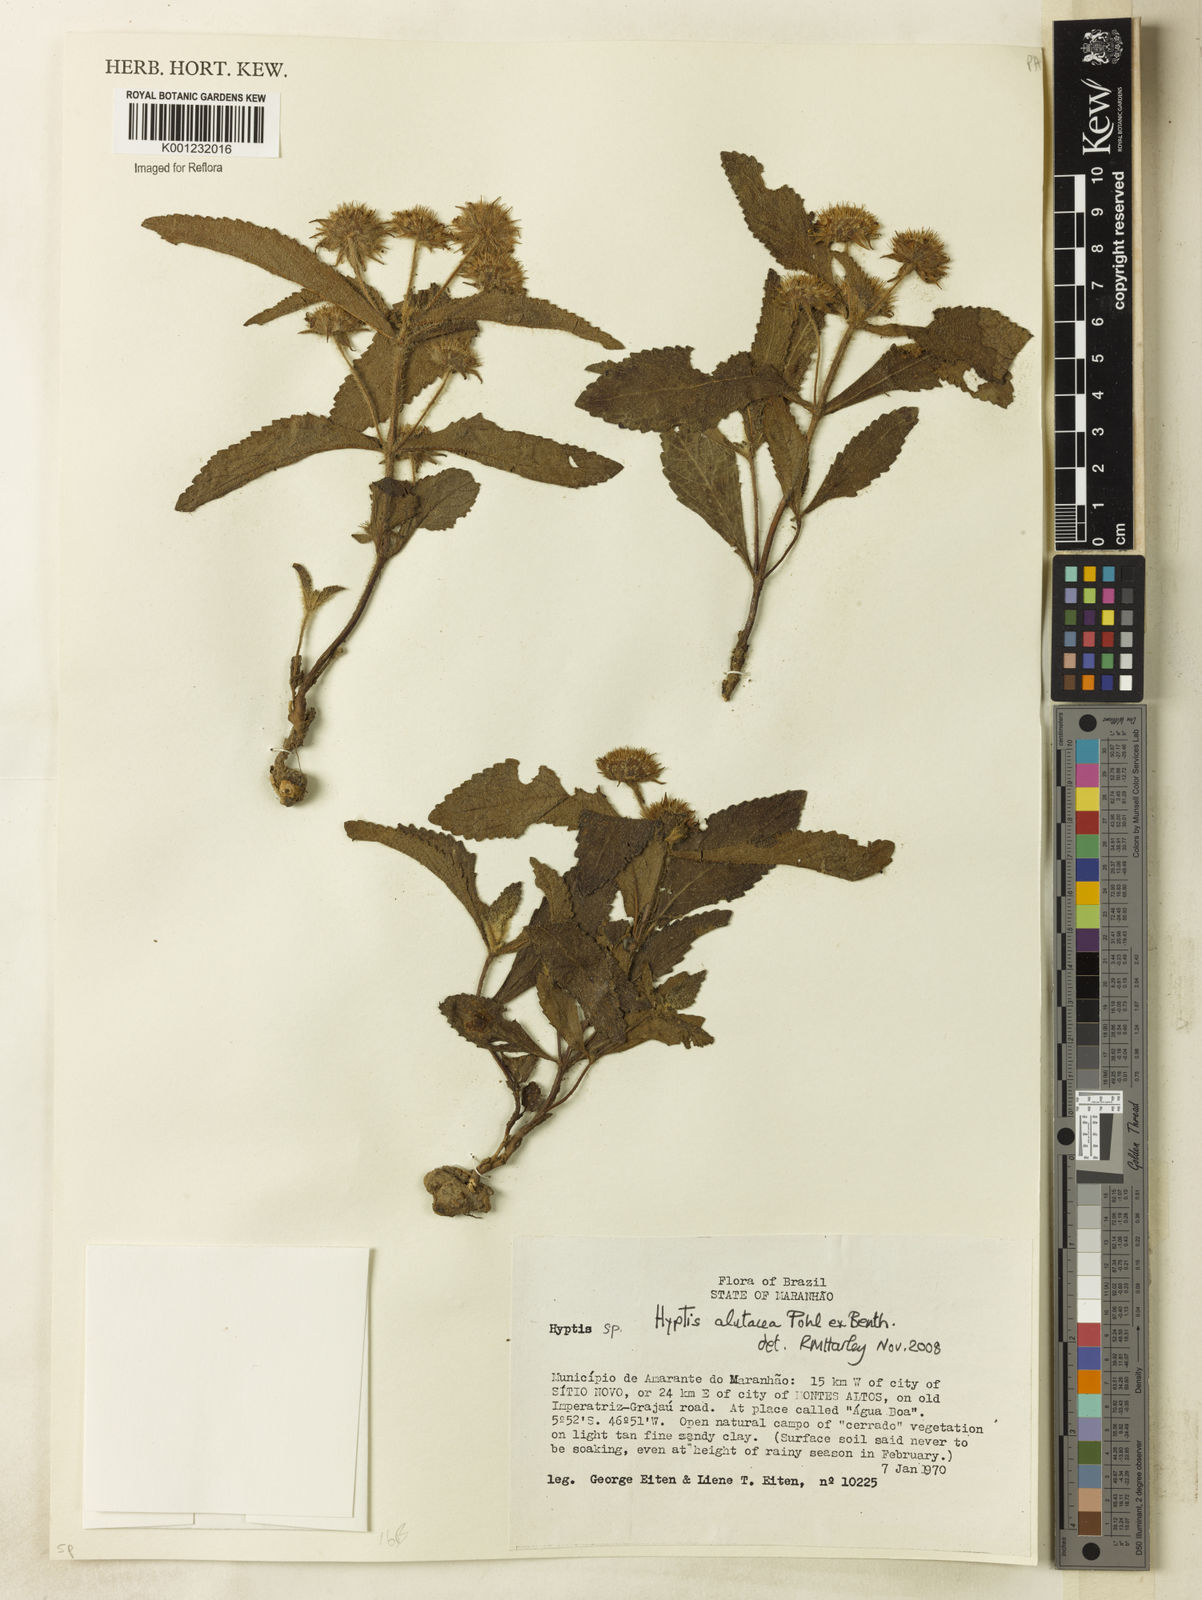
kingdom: Plantae
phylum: Tracheophyta
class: Magnoliopsida
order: Lamiales
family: Lamiaceae
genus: Hyptis
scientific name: Hyptis alutacea
